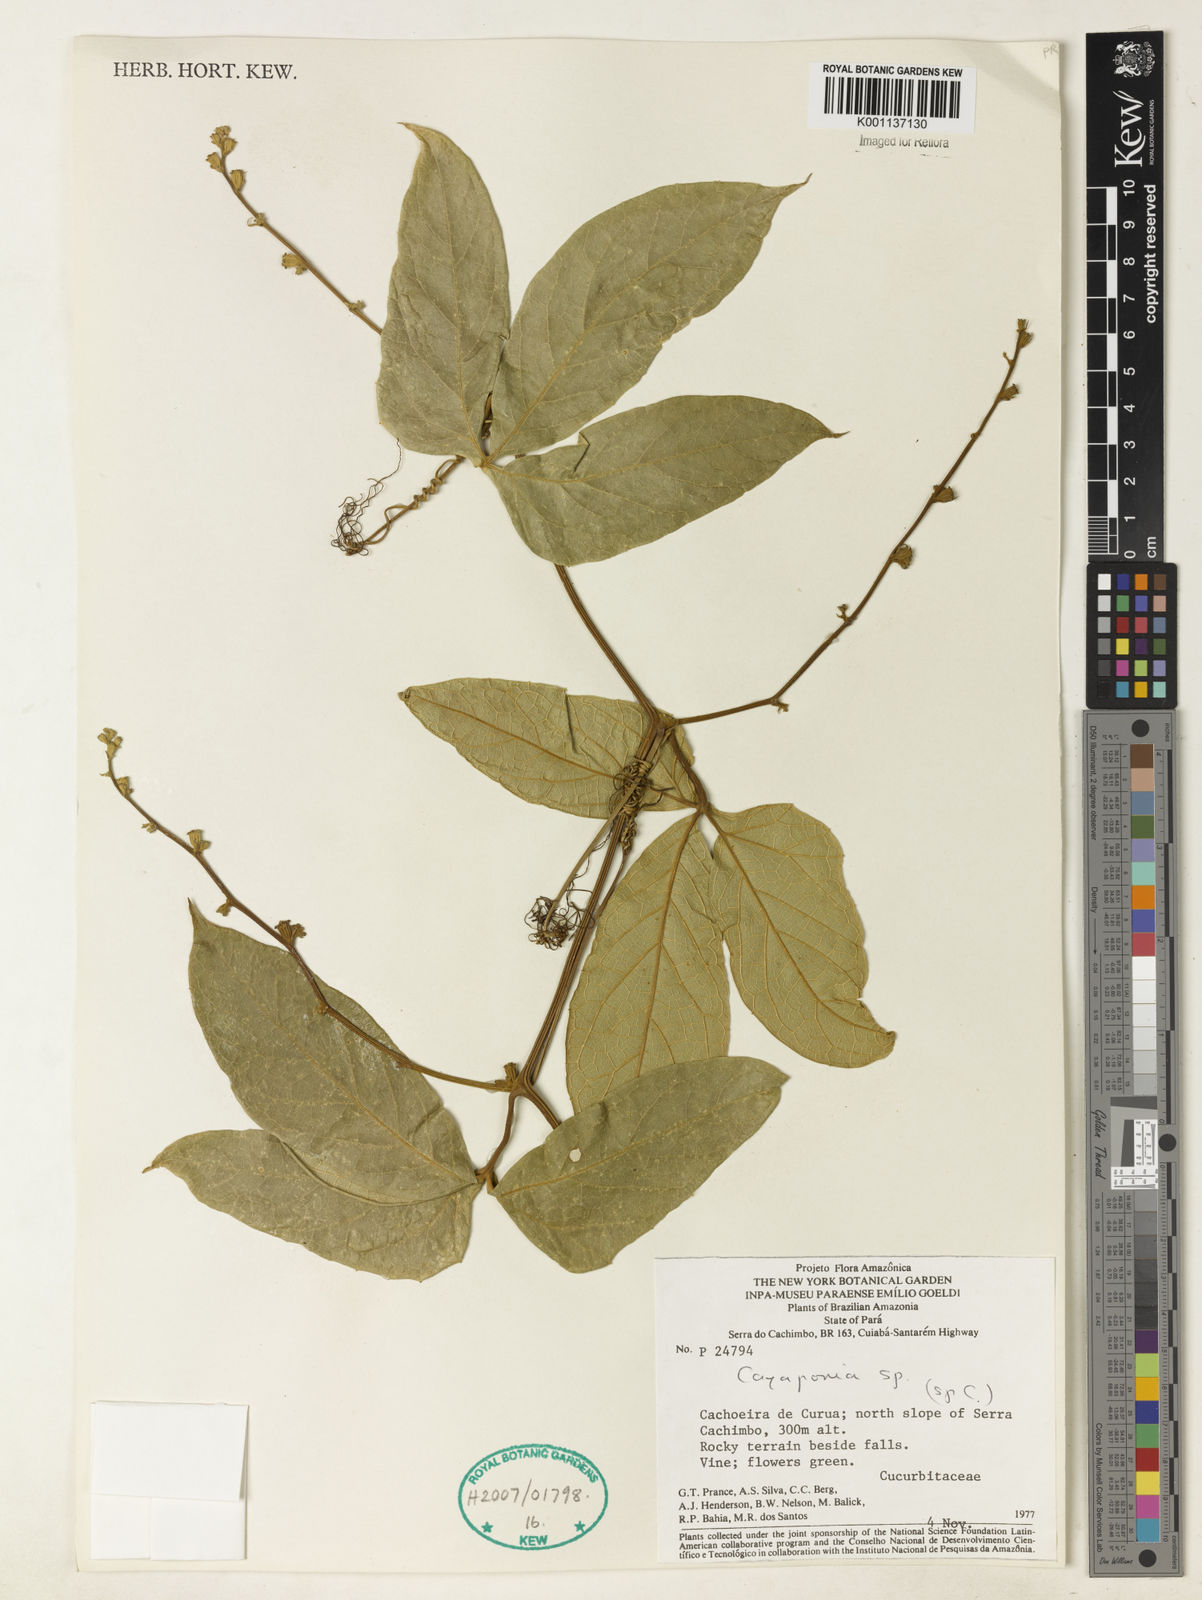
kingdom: Plantae
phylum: Tracheophyta
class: Magnoliopsida
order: Cucurbitales
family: Cucurbitaceae
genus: Cayaponia
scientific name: Cayaponia
